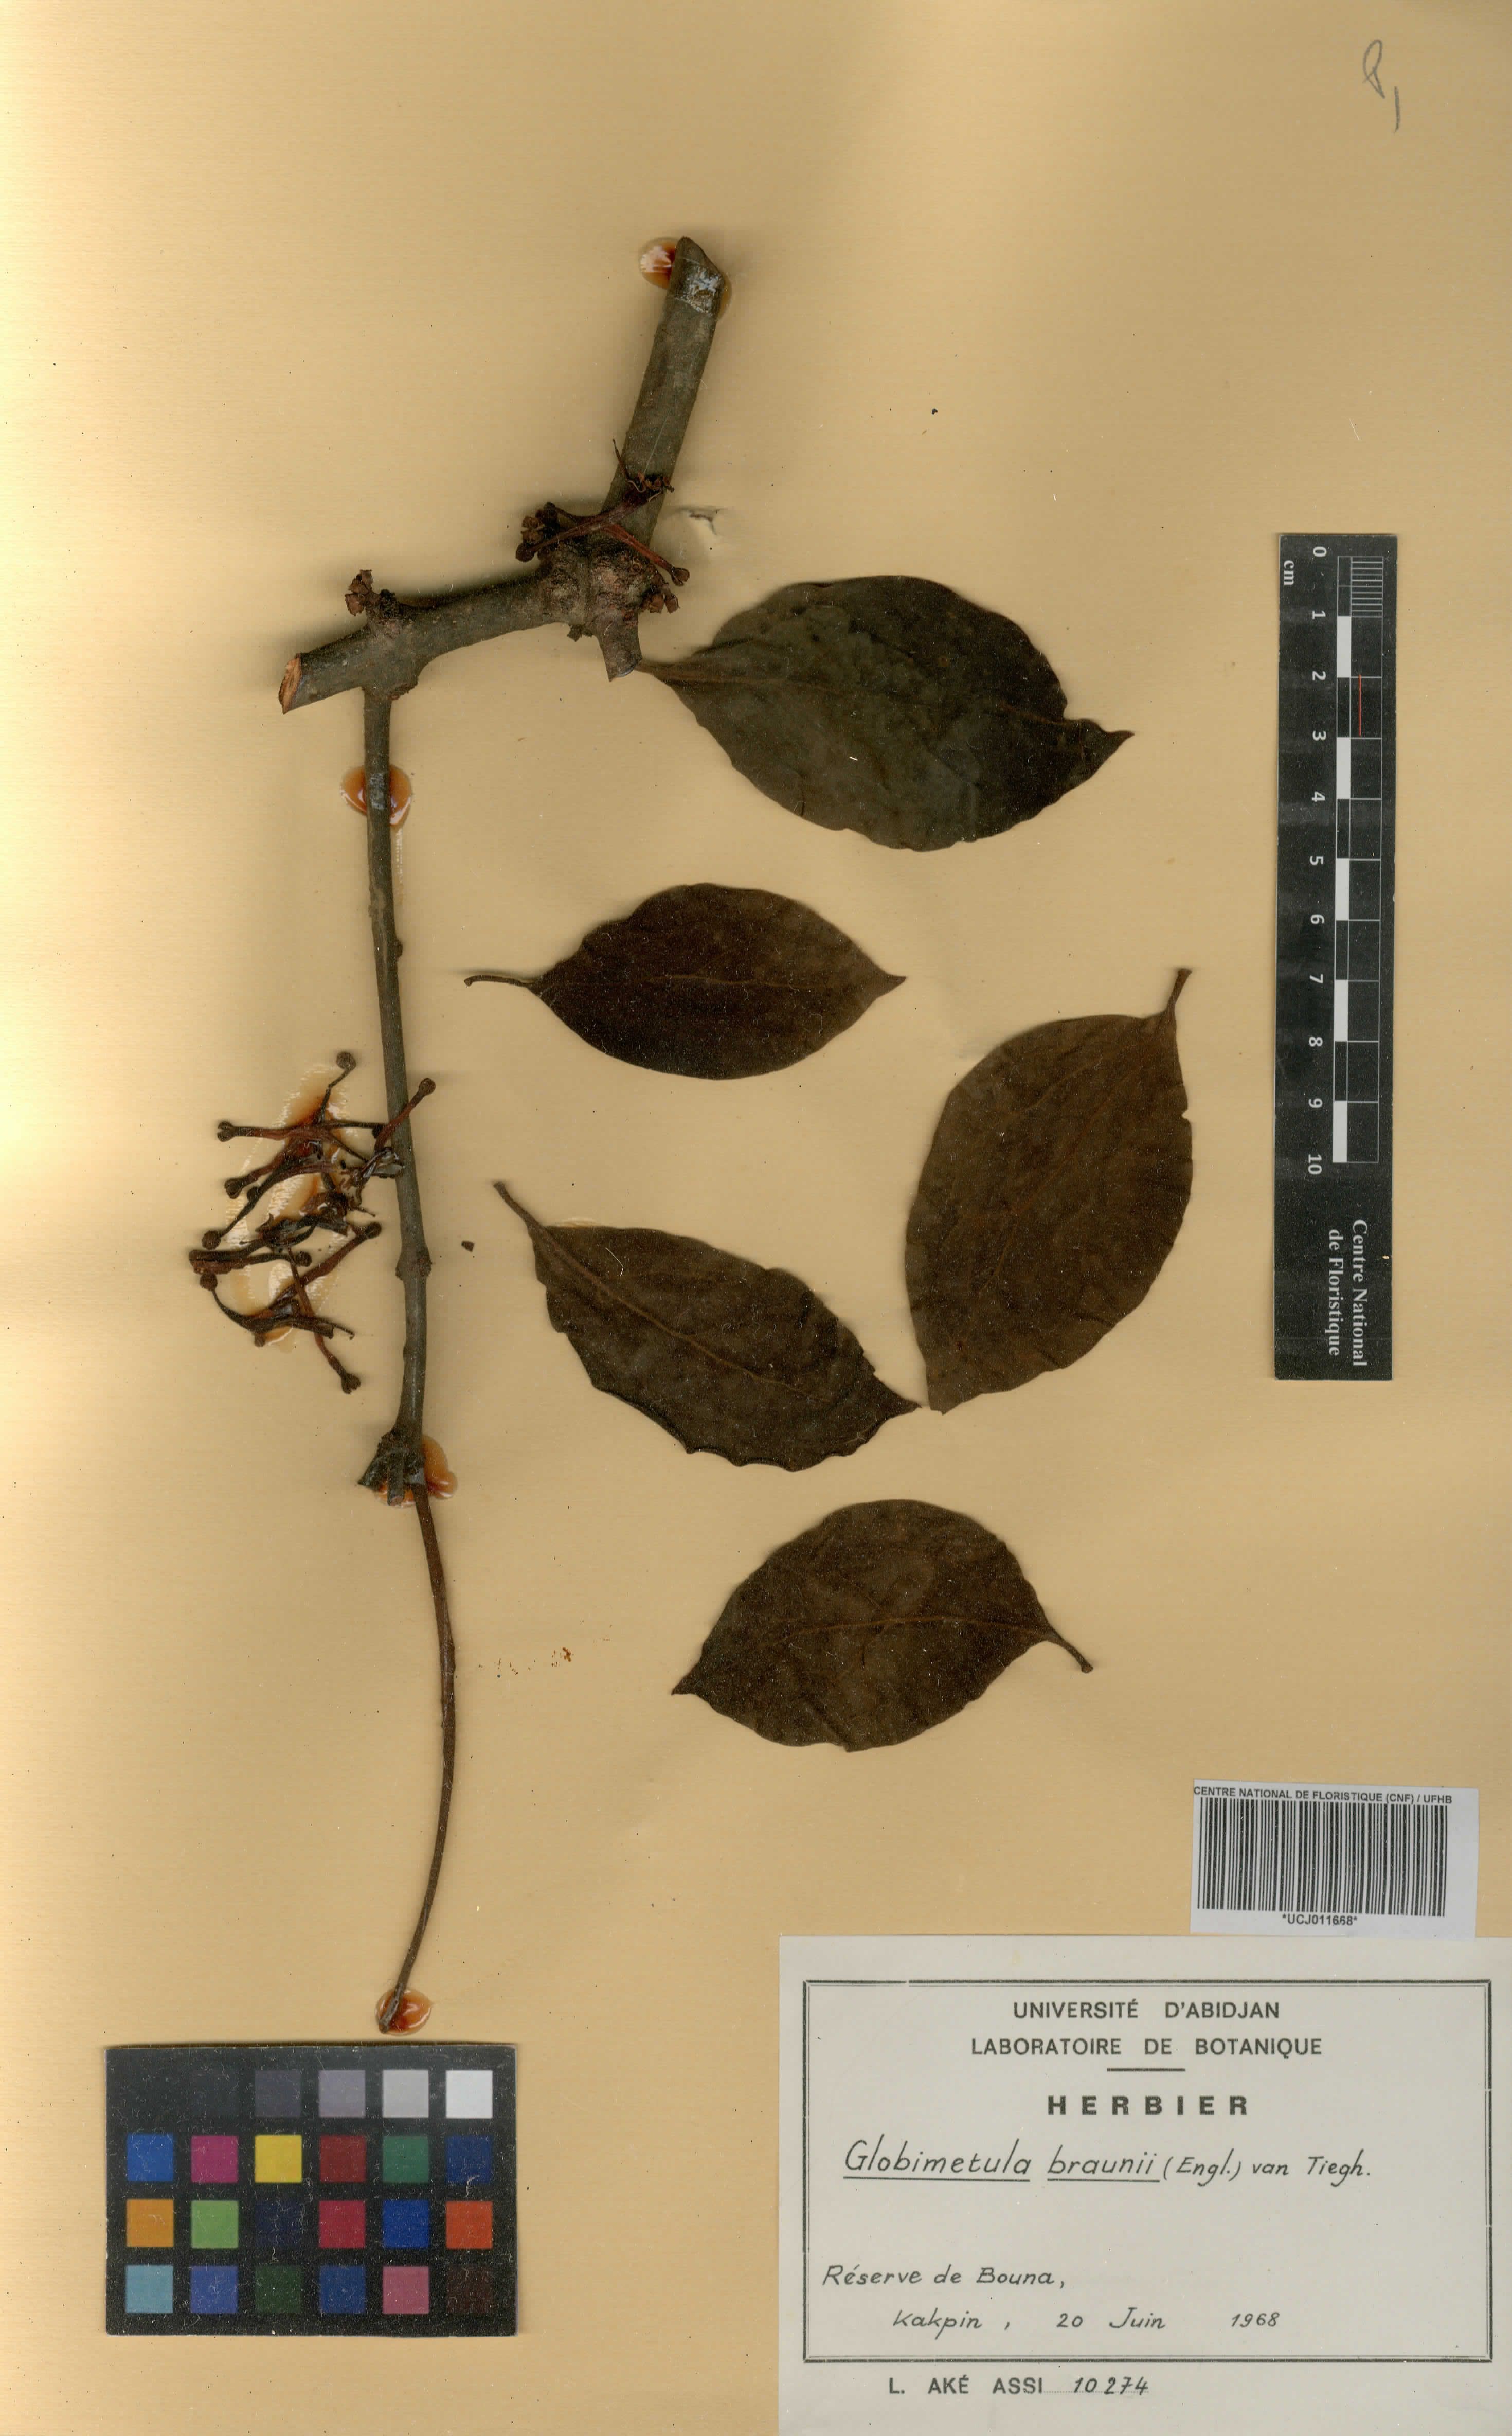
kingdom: Plantae
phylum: Tracheophyta
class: Magnoliopsida
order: Santalales
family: Loranthaceae
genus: Globimetula
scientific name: Globimetula braunii
